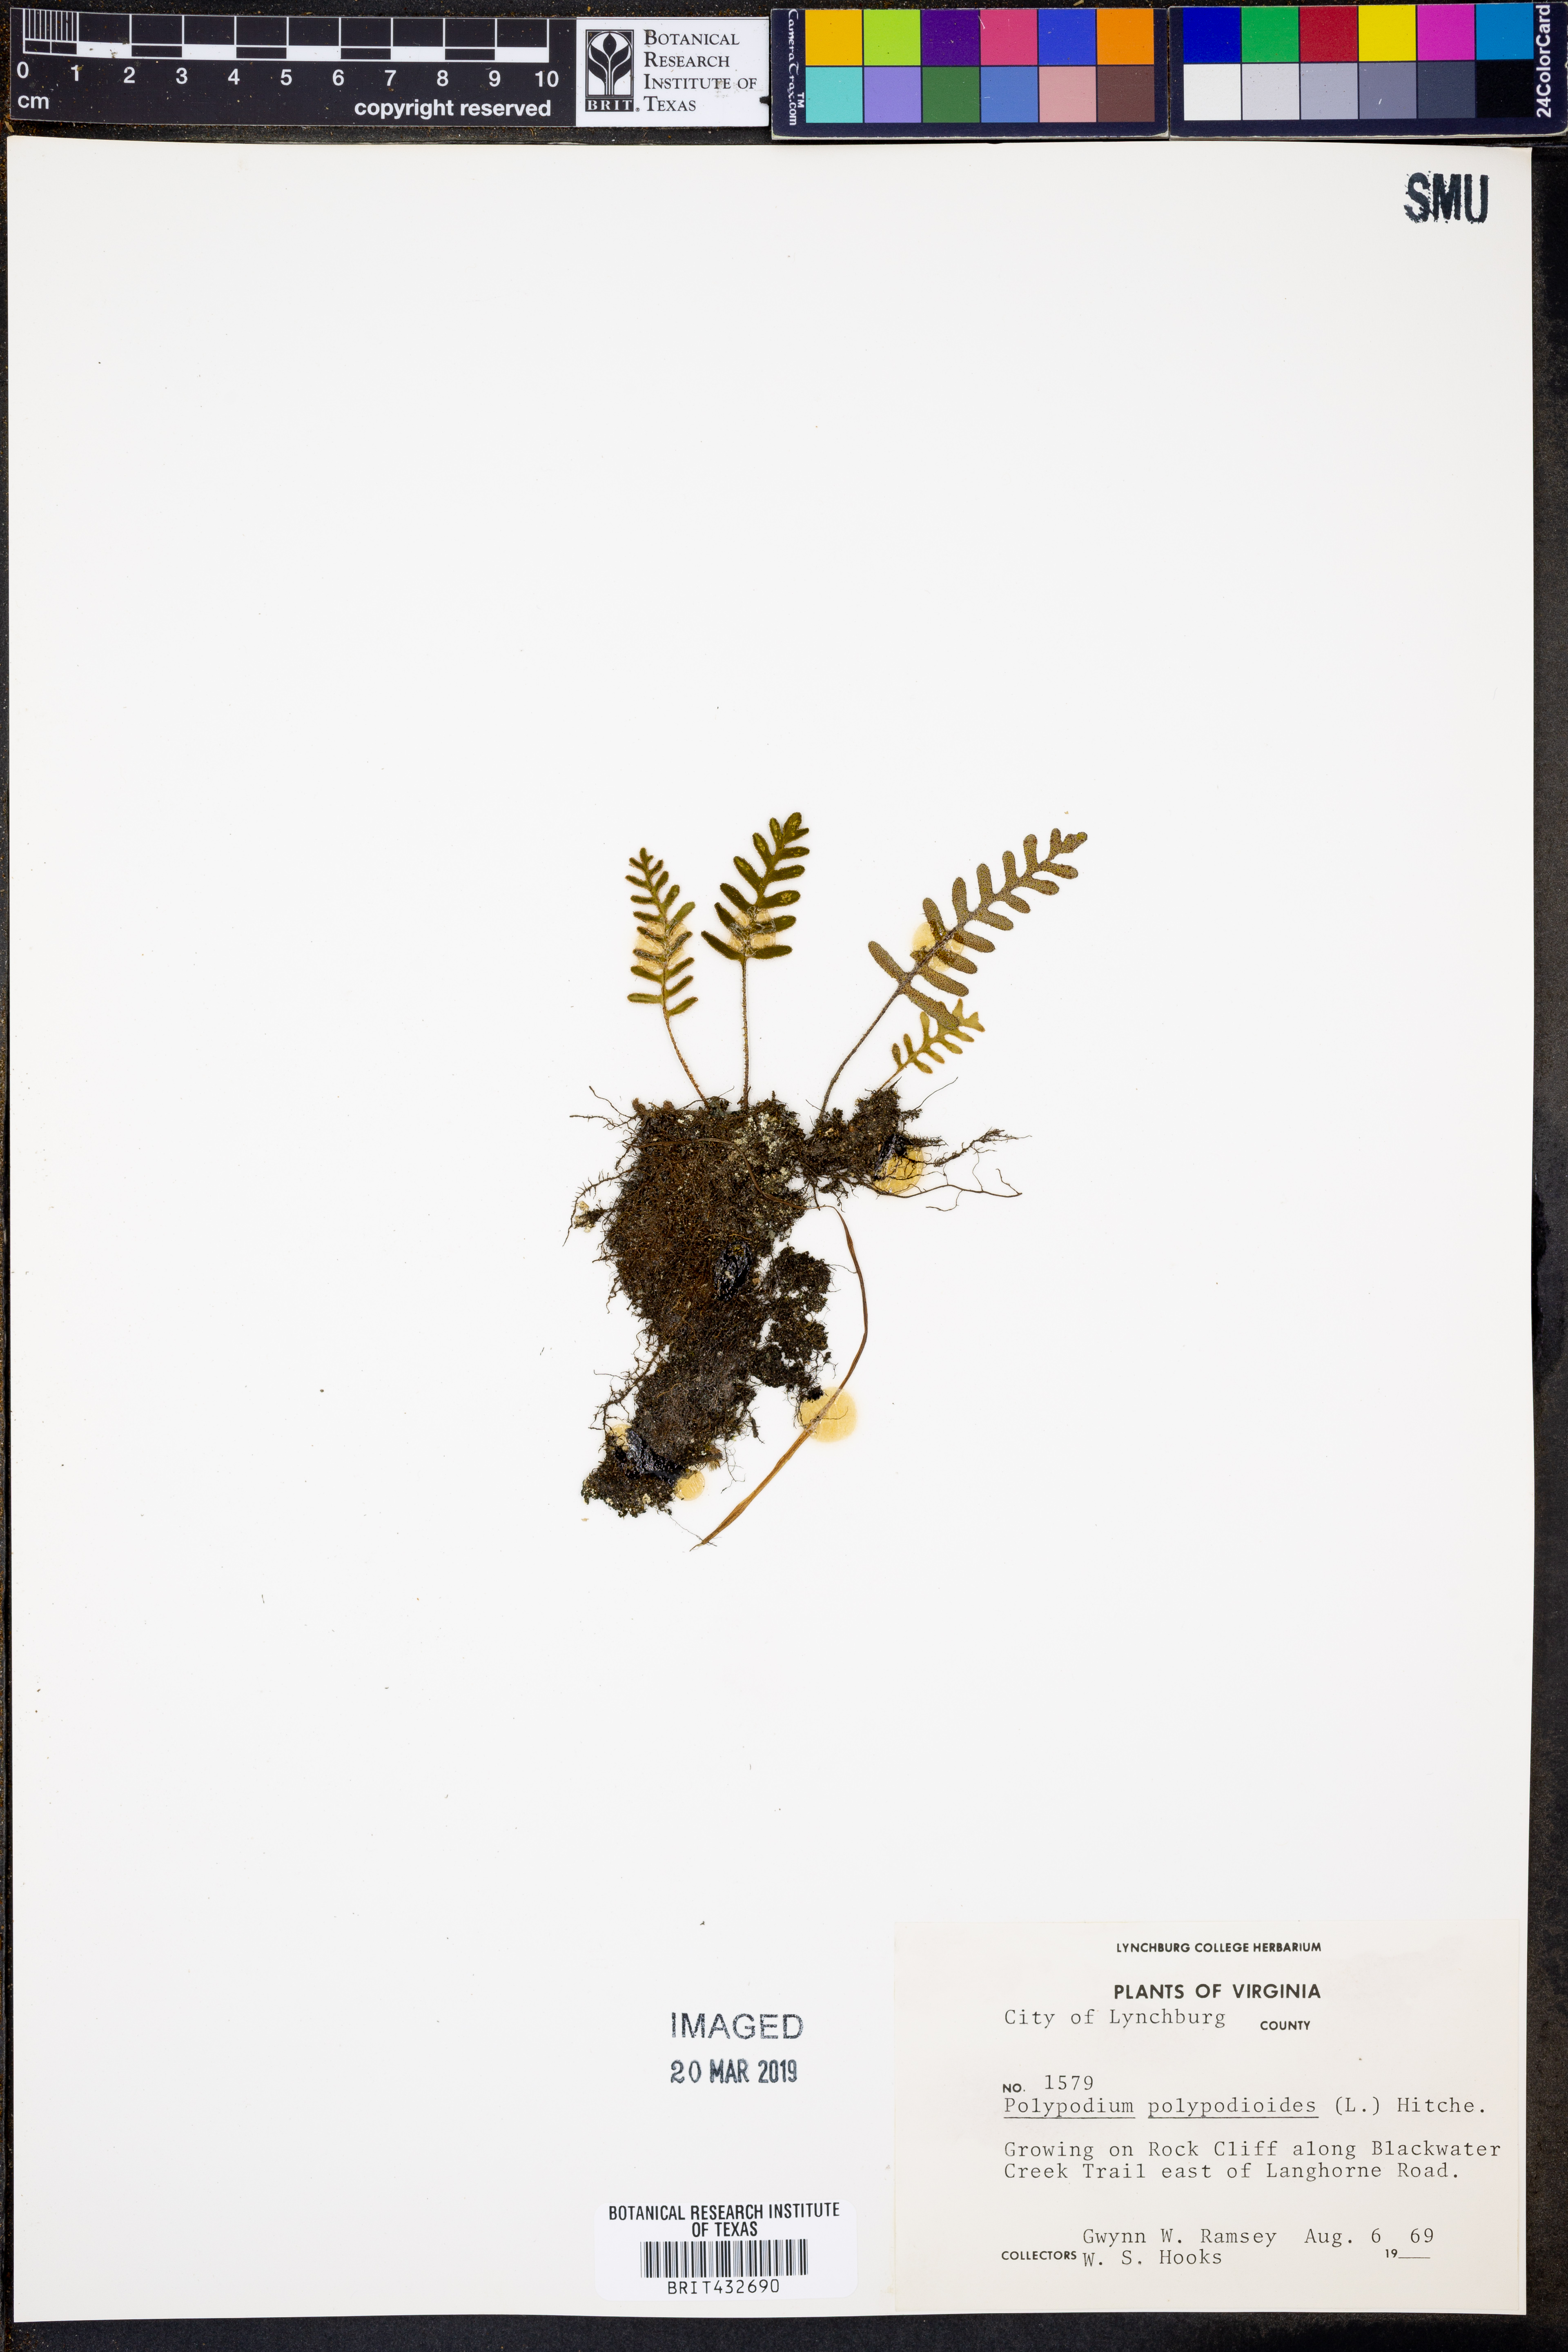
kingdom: Plantae
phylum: Tracheophyta
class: Polypodiopsida
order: Polypodiales
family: Polypodiaceae
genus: Pleopeltis
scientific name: Pleopeltis polypodioides
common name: Resurrection fern
